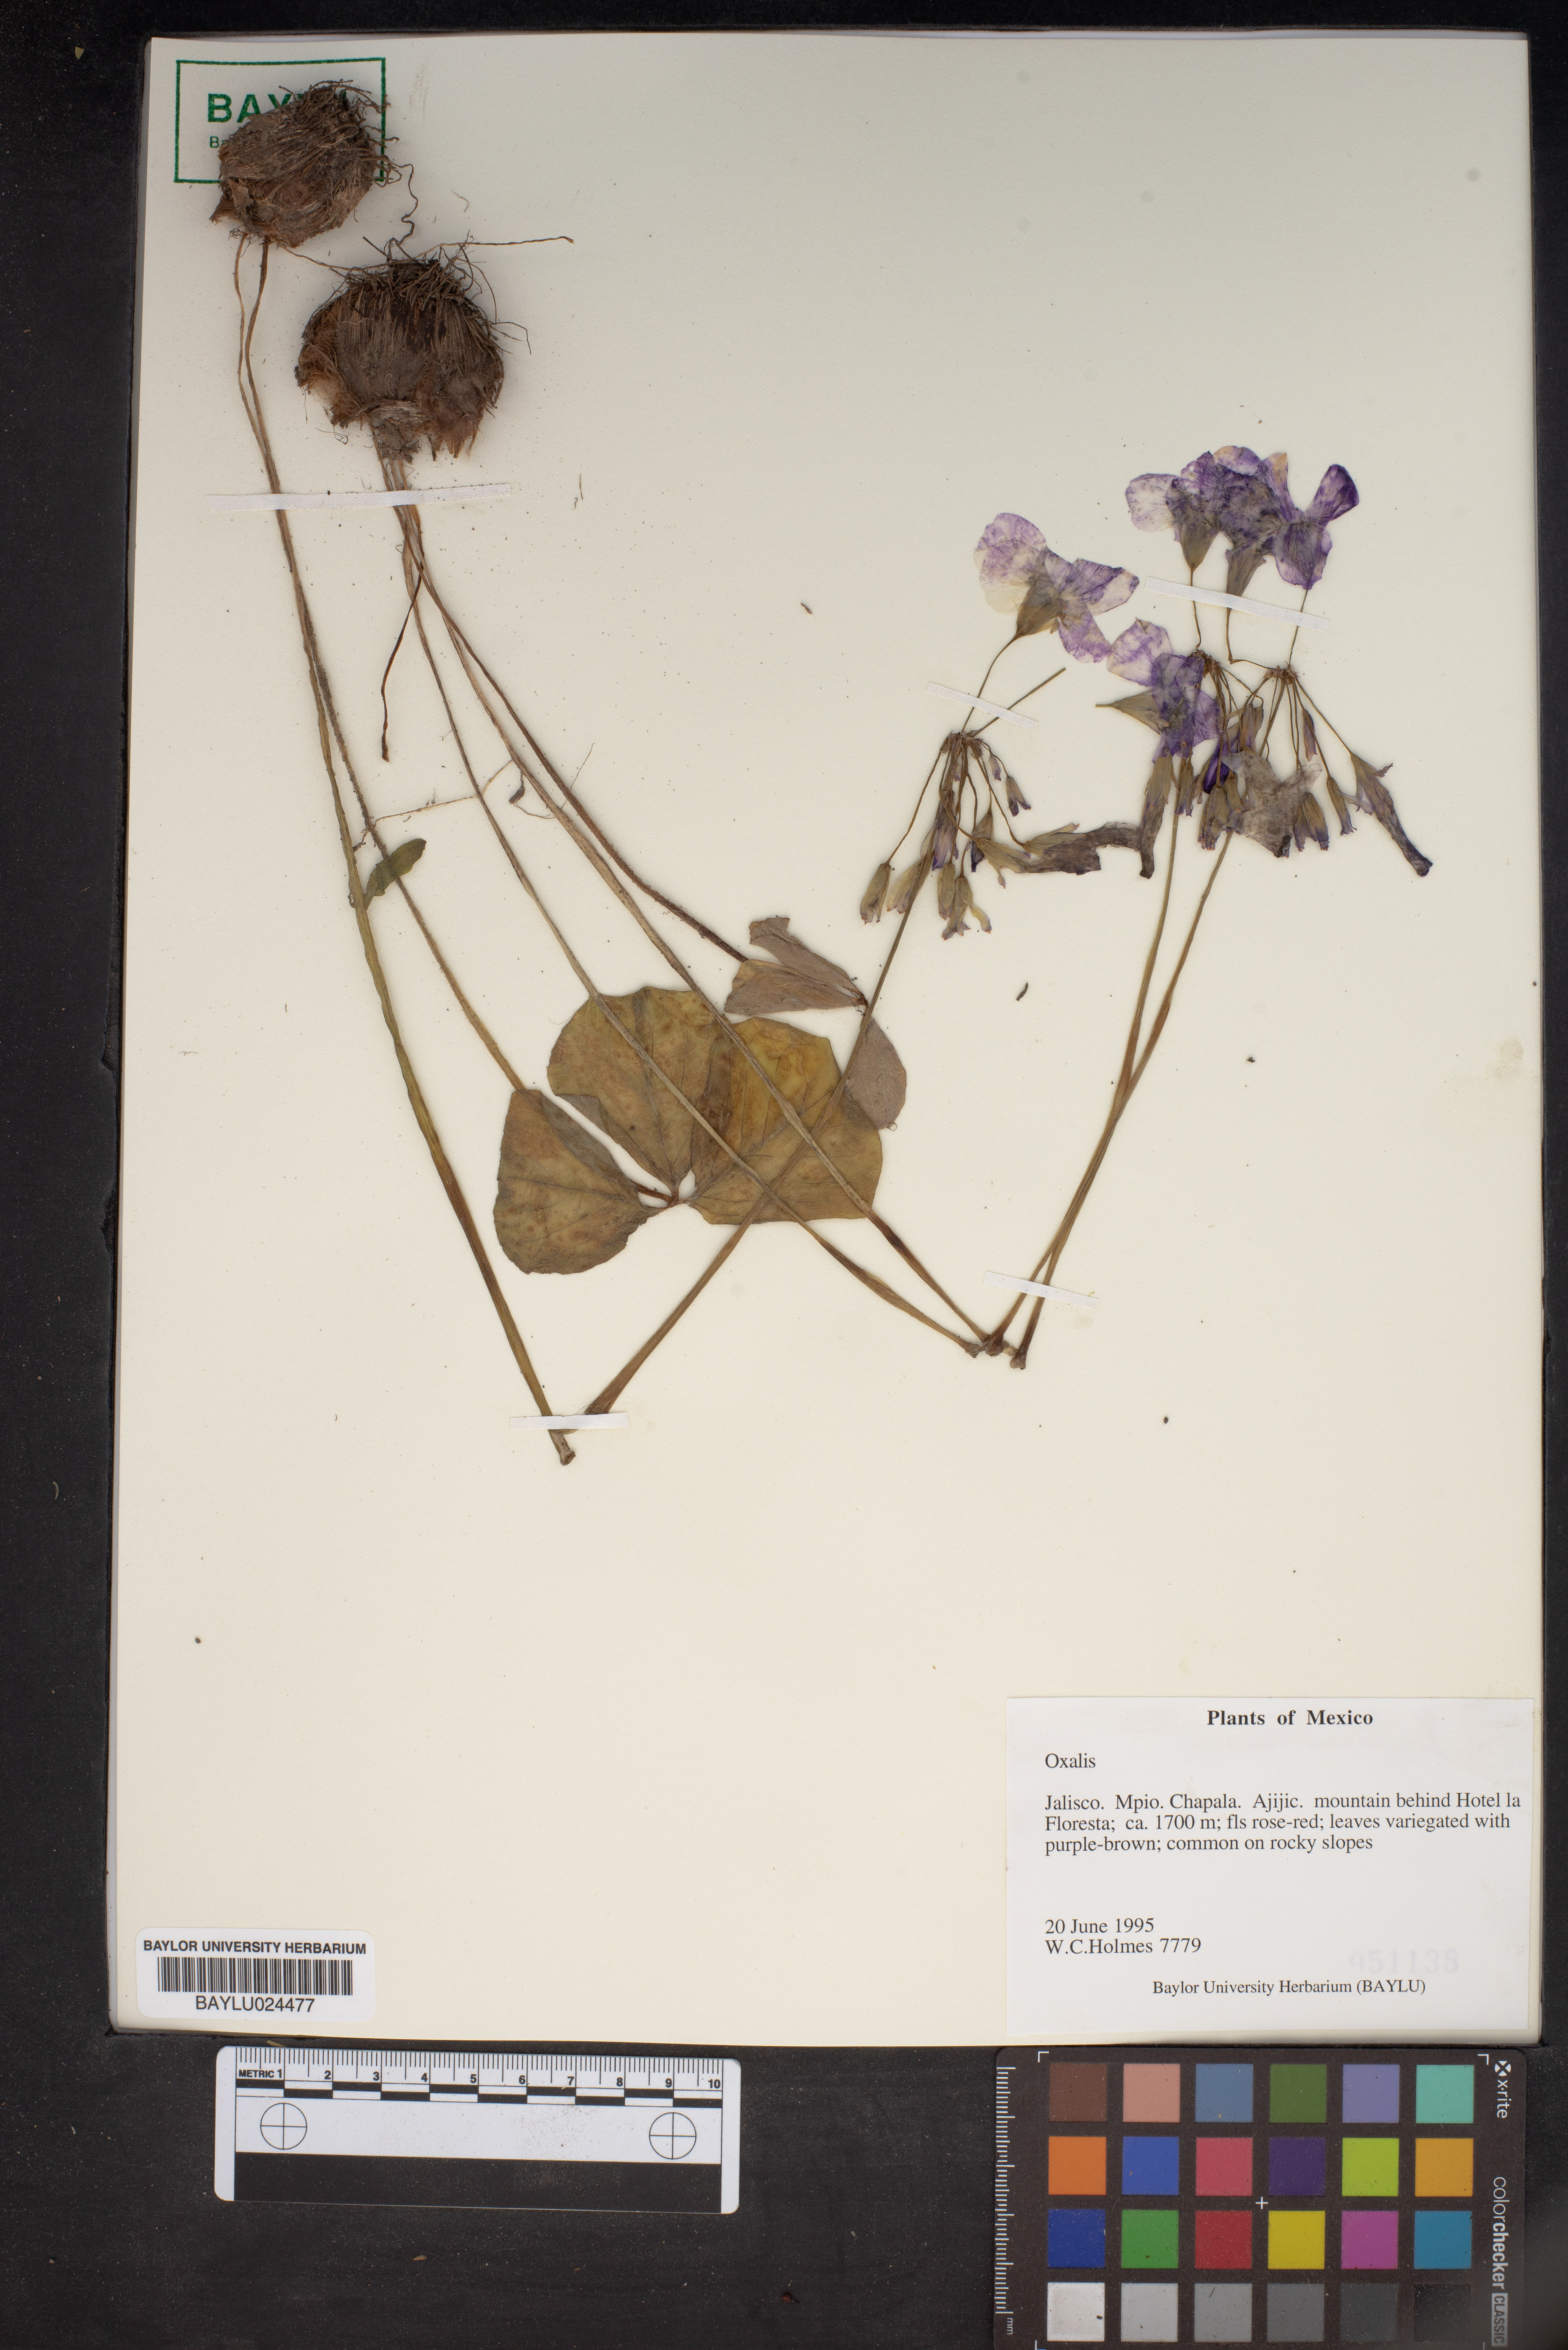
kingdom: Plantae
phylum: Tracheophyta
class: Magnoliopsida
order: Oxalidales
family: Oxalidaceae
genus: Oxalis
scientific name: Oxalis
